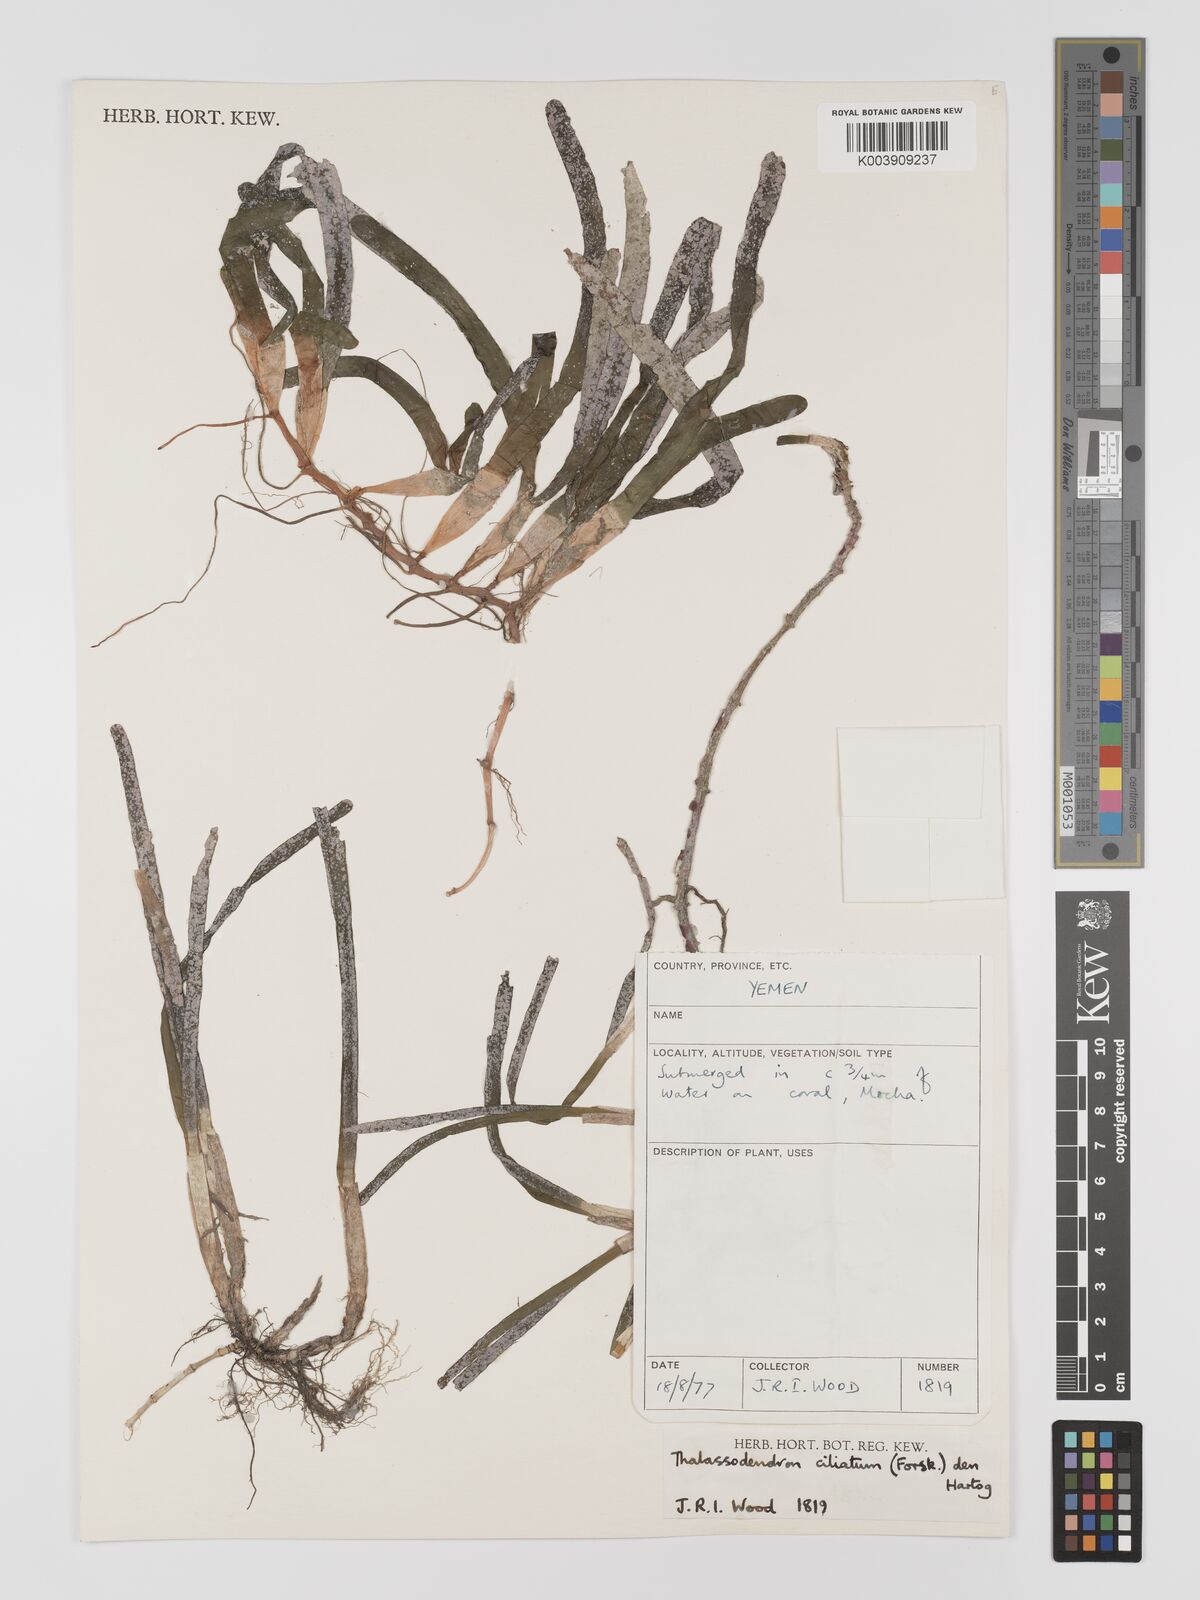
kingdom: Plantae
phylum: Tracheophyta
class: Liliopsida
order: Alismatales
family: Cymodoceaceae
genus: Thalassodendron
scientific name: Thalassodendron ciliatum
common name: Species code: tc
